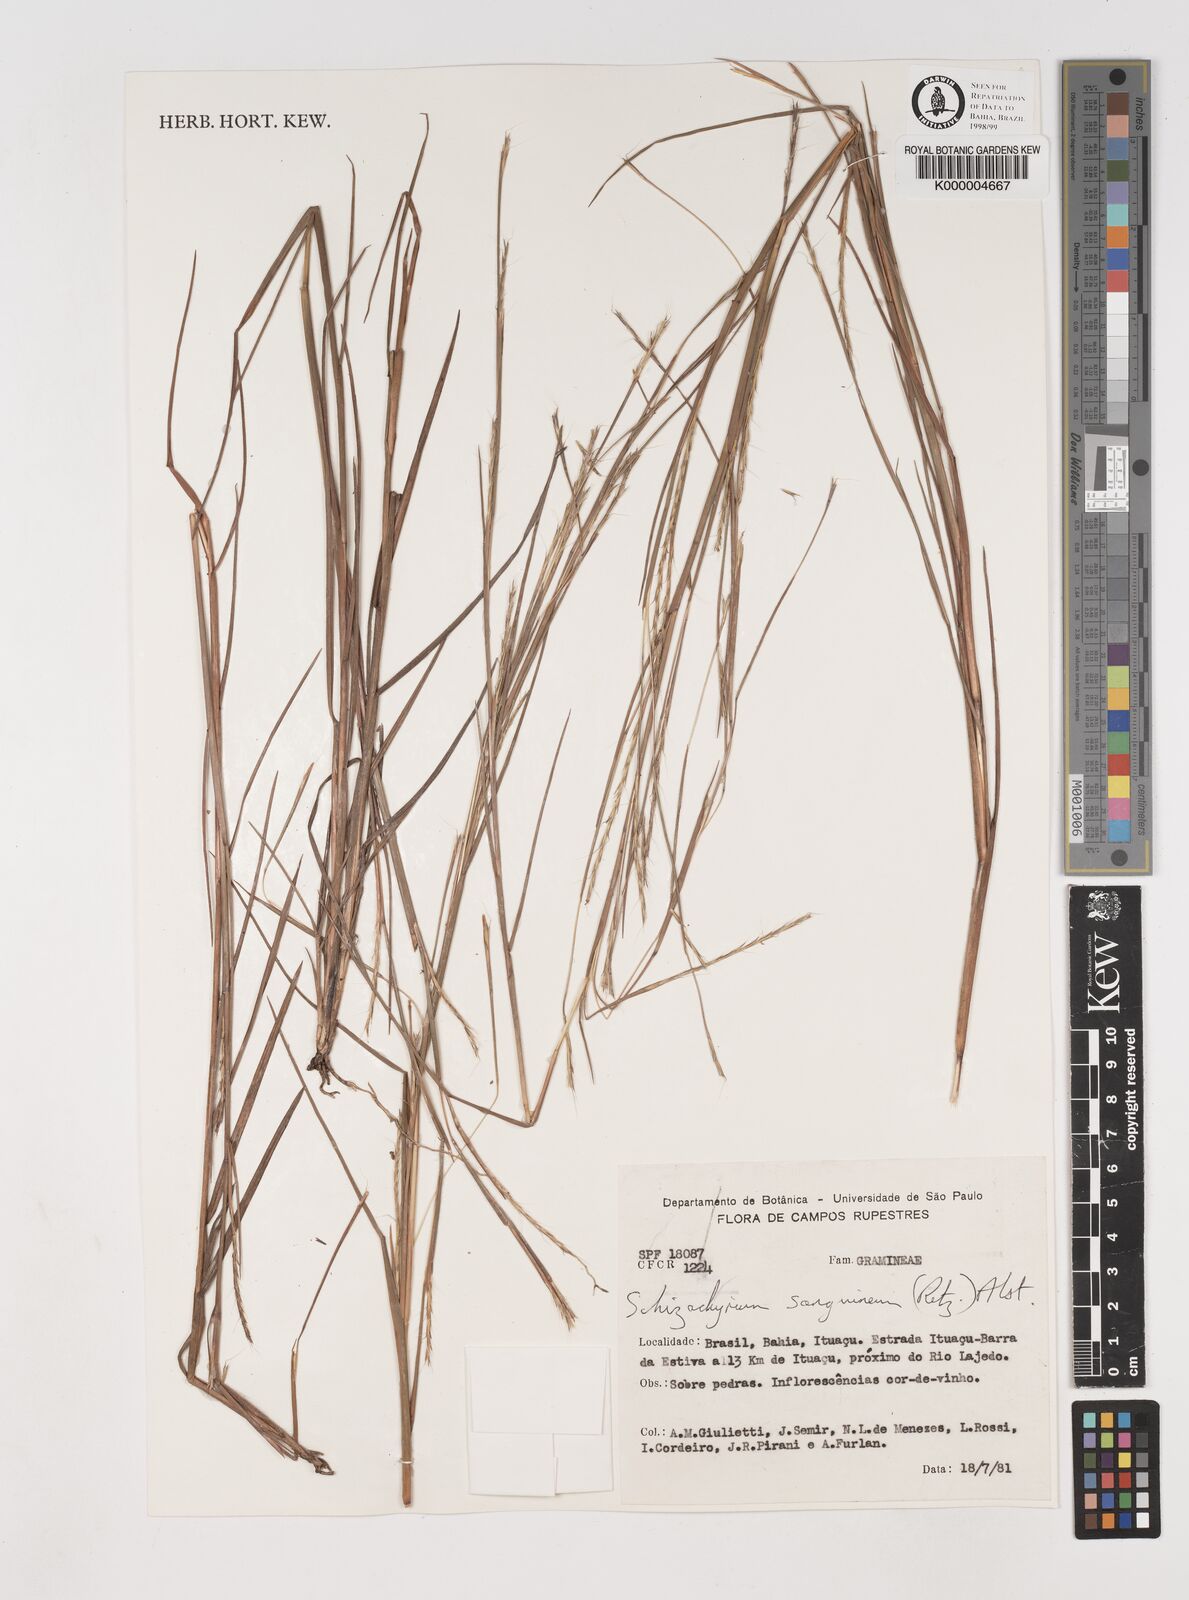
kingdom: Plantae
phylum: Tracheophyta
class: Liliopsida
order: Poales
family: Poaceae
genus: Schizachyrium
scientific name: Schizachyrium sanguineum
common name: Crimson bluestem
